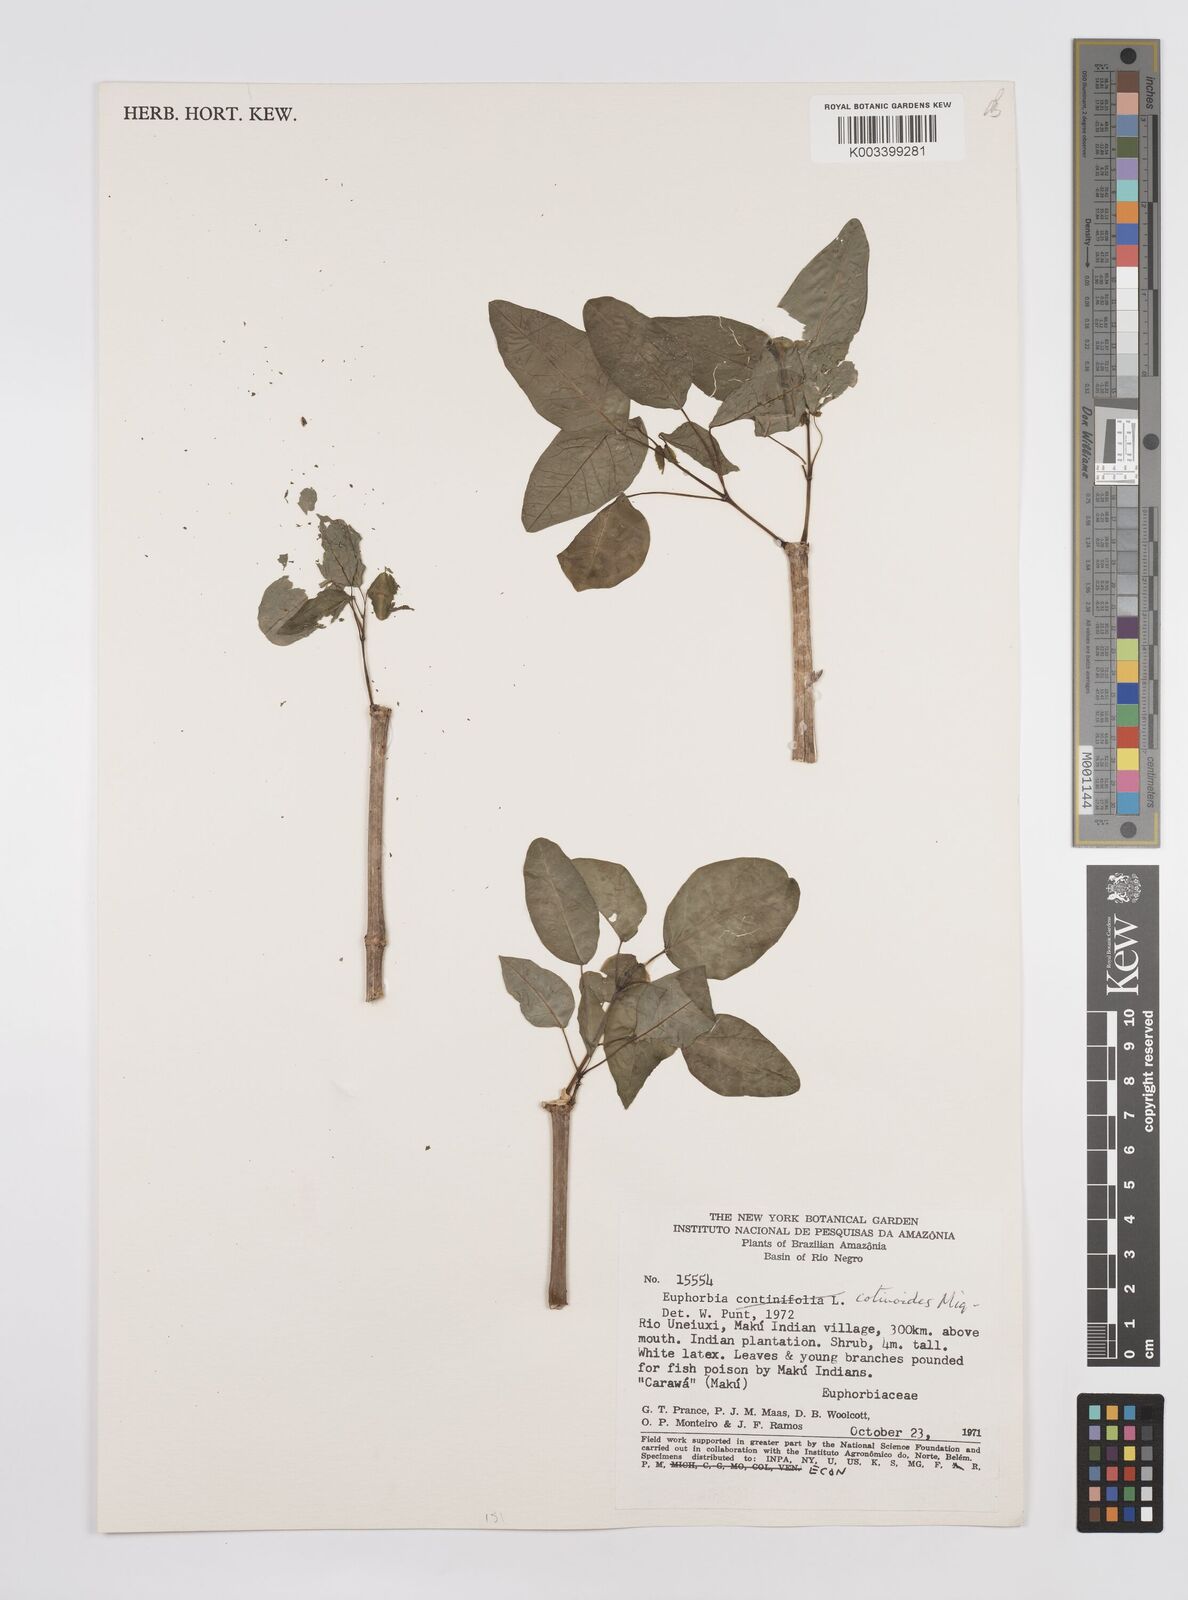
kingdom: Plantae
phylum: Tracheophyta
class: Magnoliopsida
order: Malpighiales
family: Euphorbiaceae
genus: Euphorbia
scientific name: Euphorbia cotinifolia
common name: Tropical smokebush
